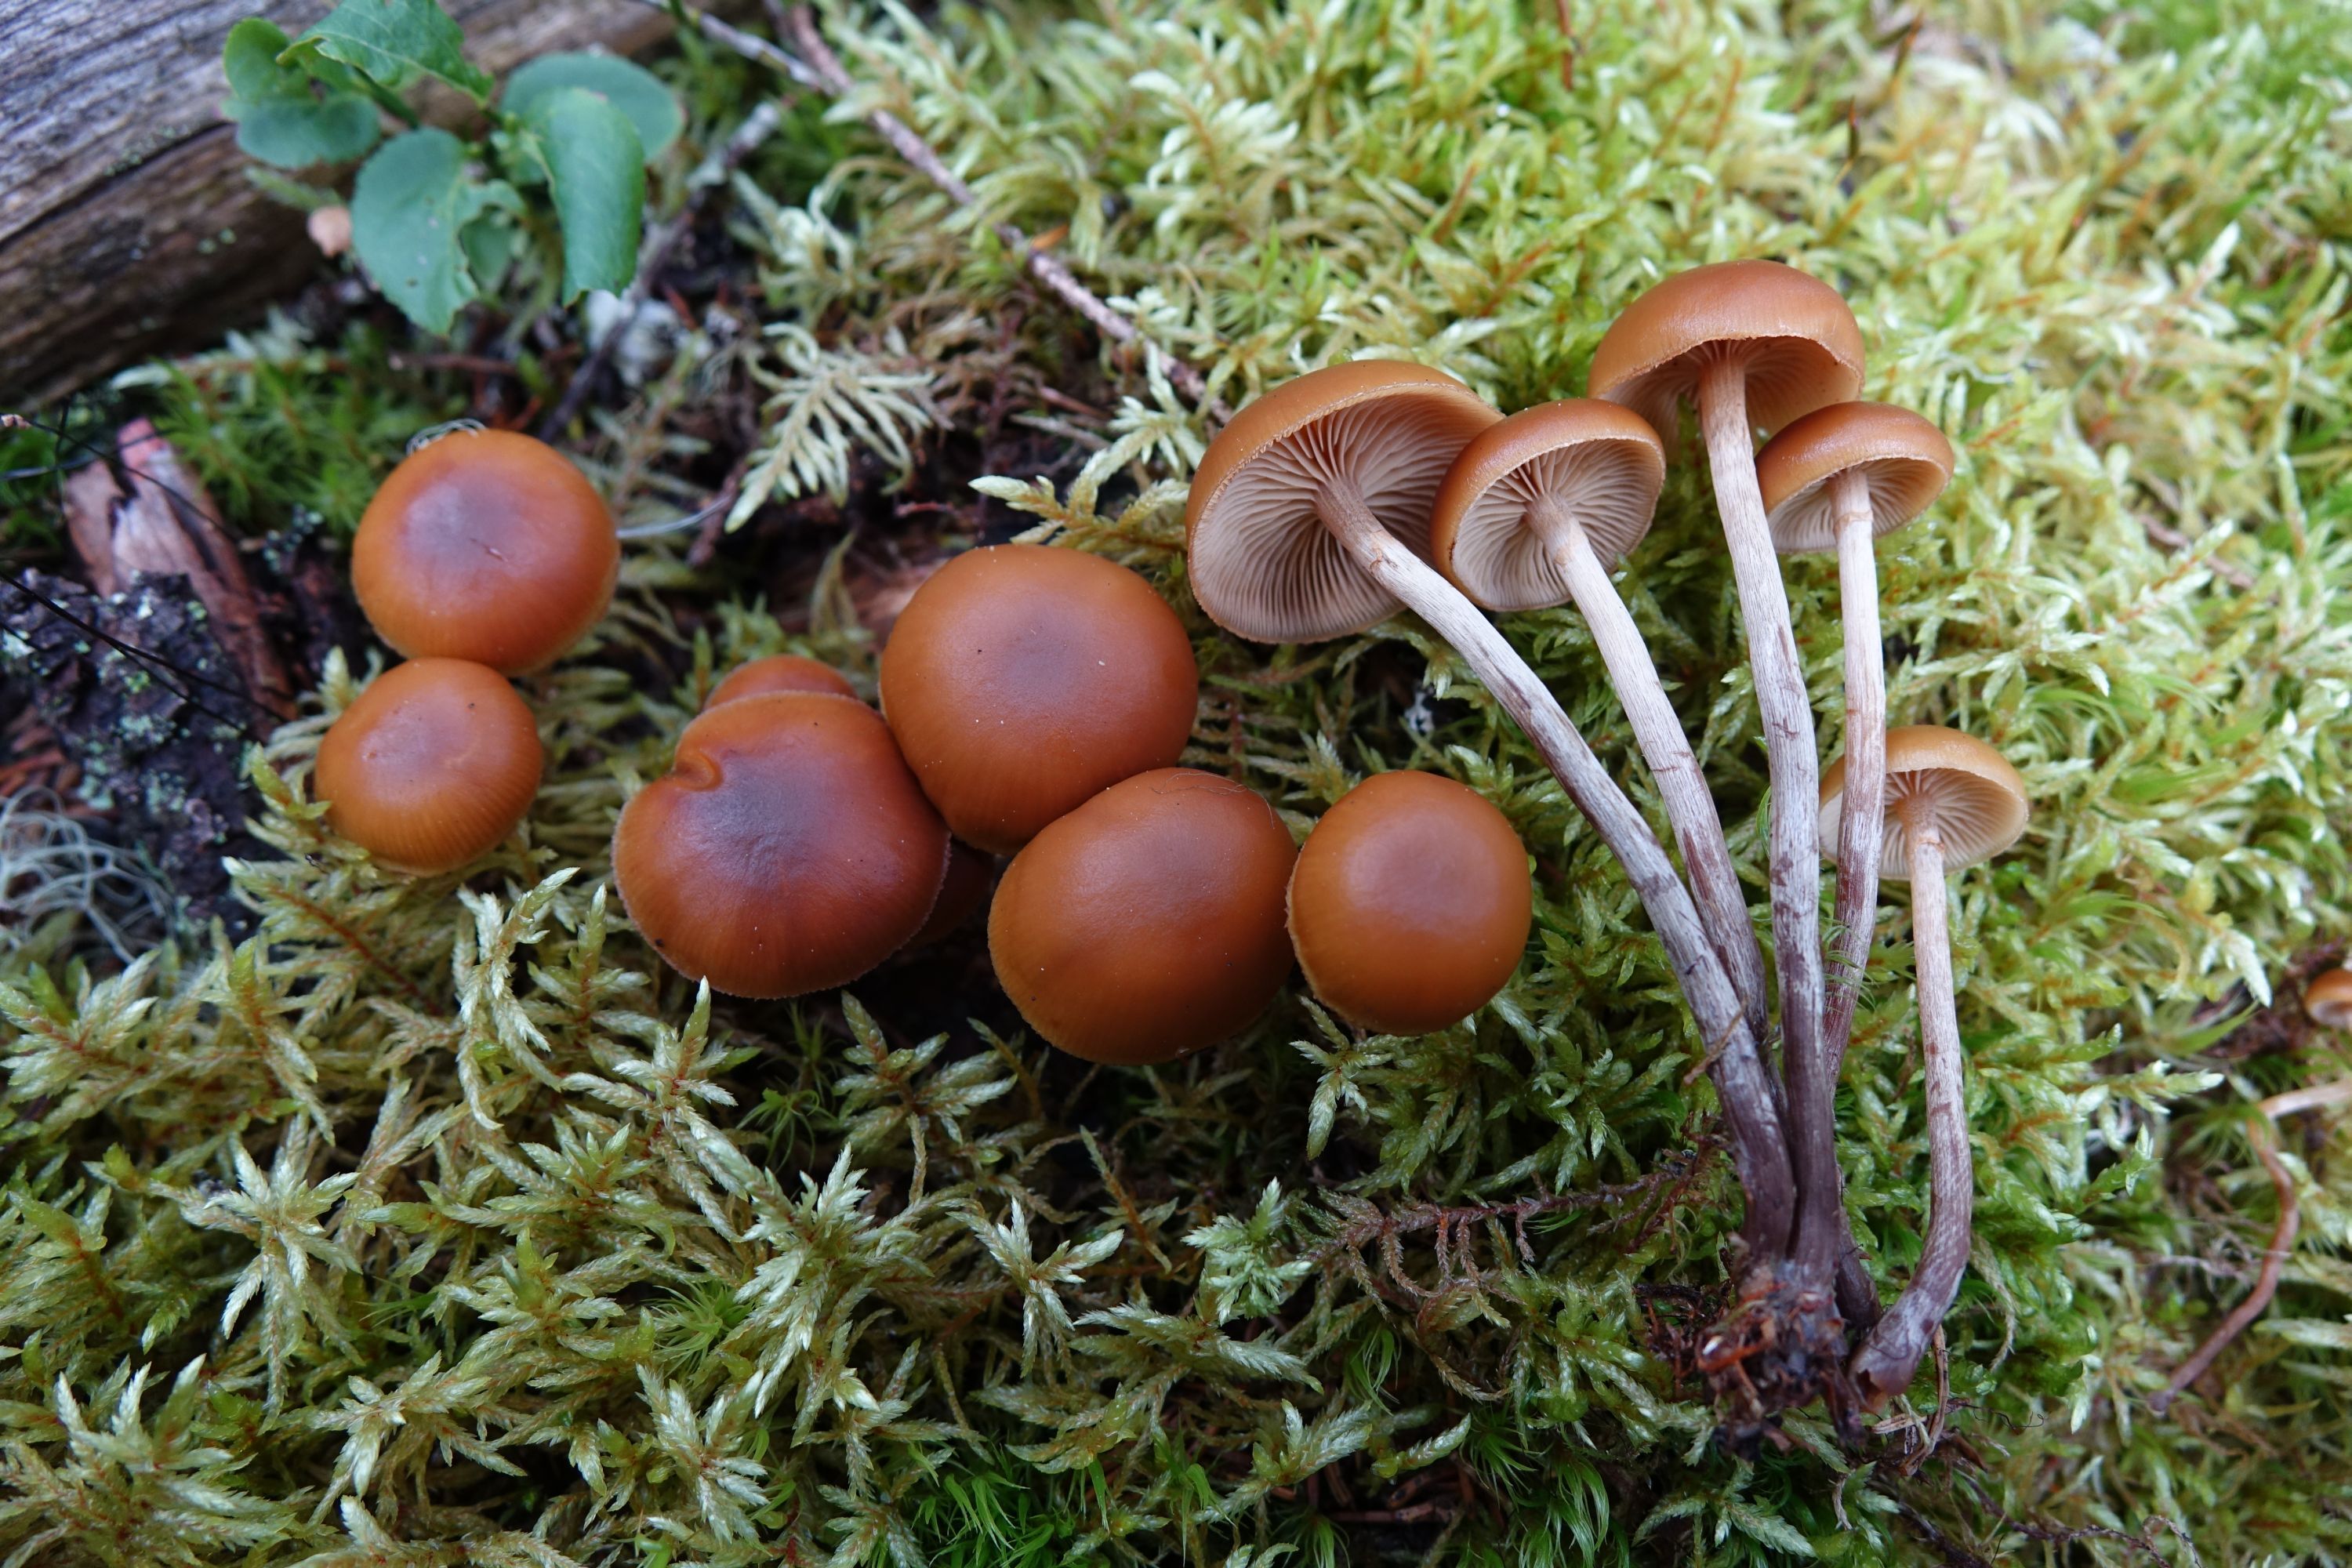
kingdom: Fungi
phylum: Basidiomycota
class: Agaricomycetes
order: Agaricales
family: Hymenogastraceae
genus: Galerina
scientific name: Galerina marginata
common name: Funeral bell
